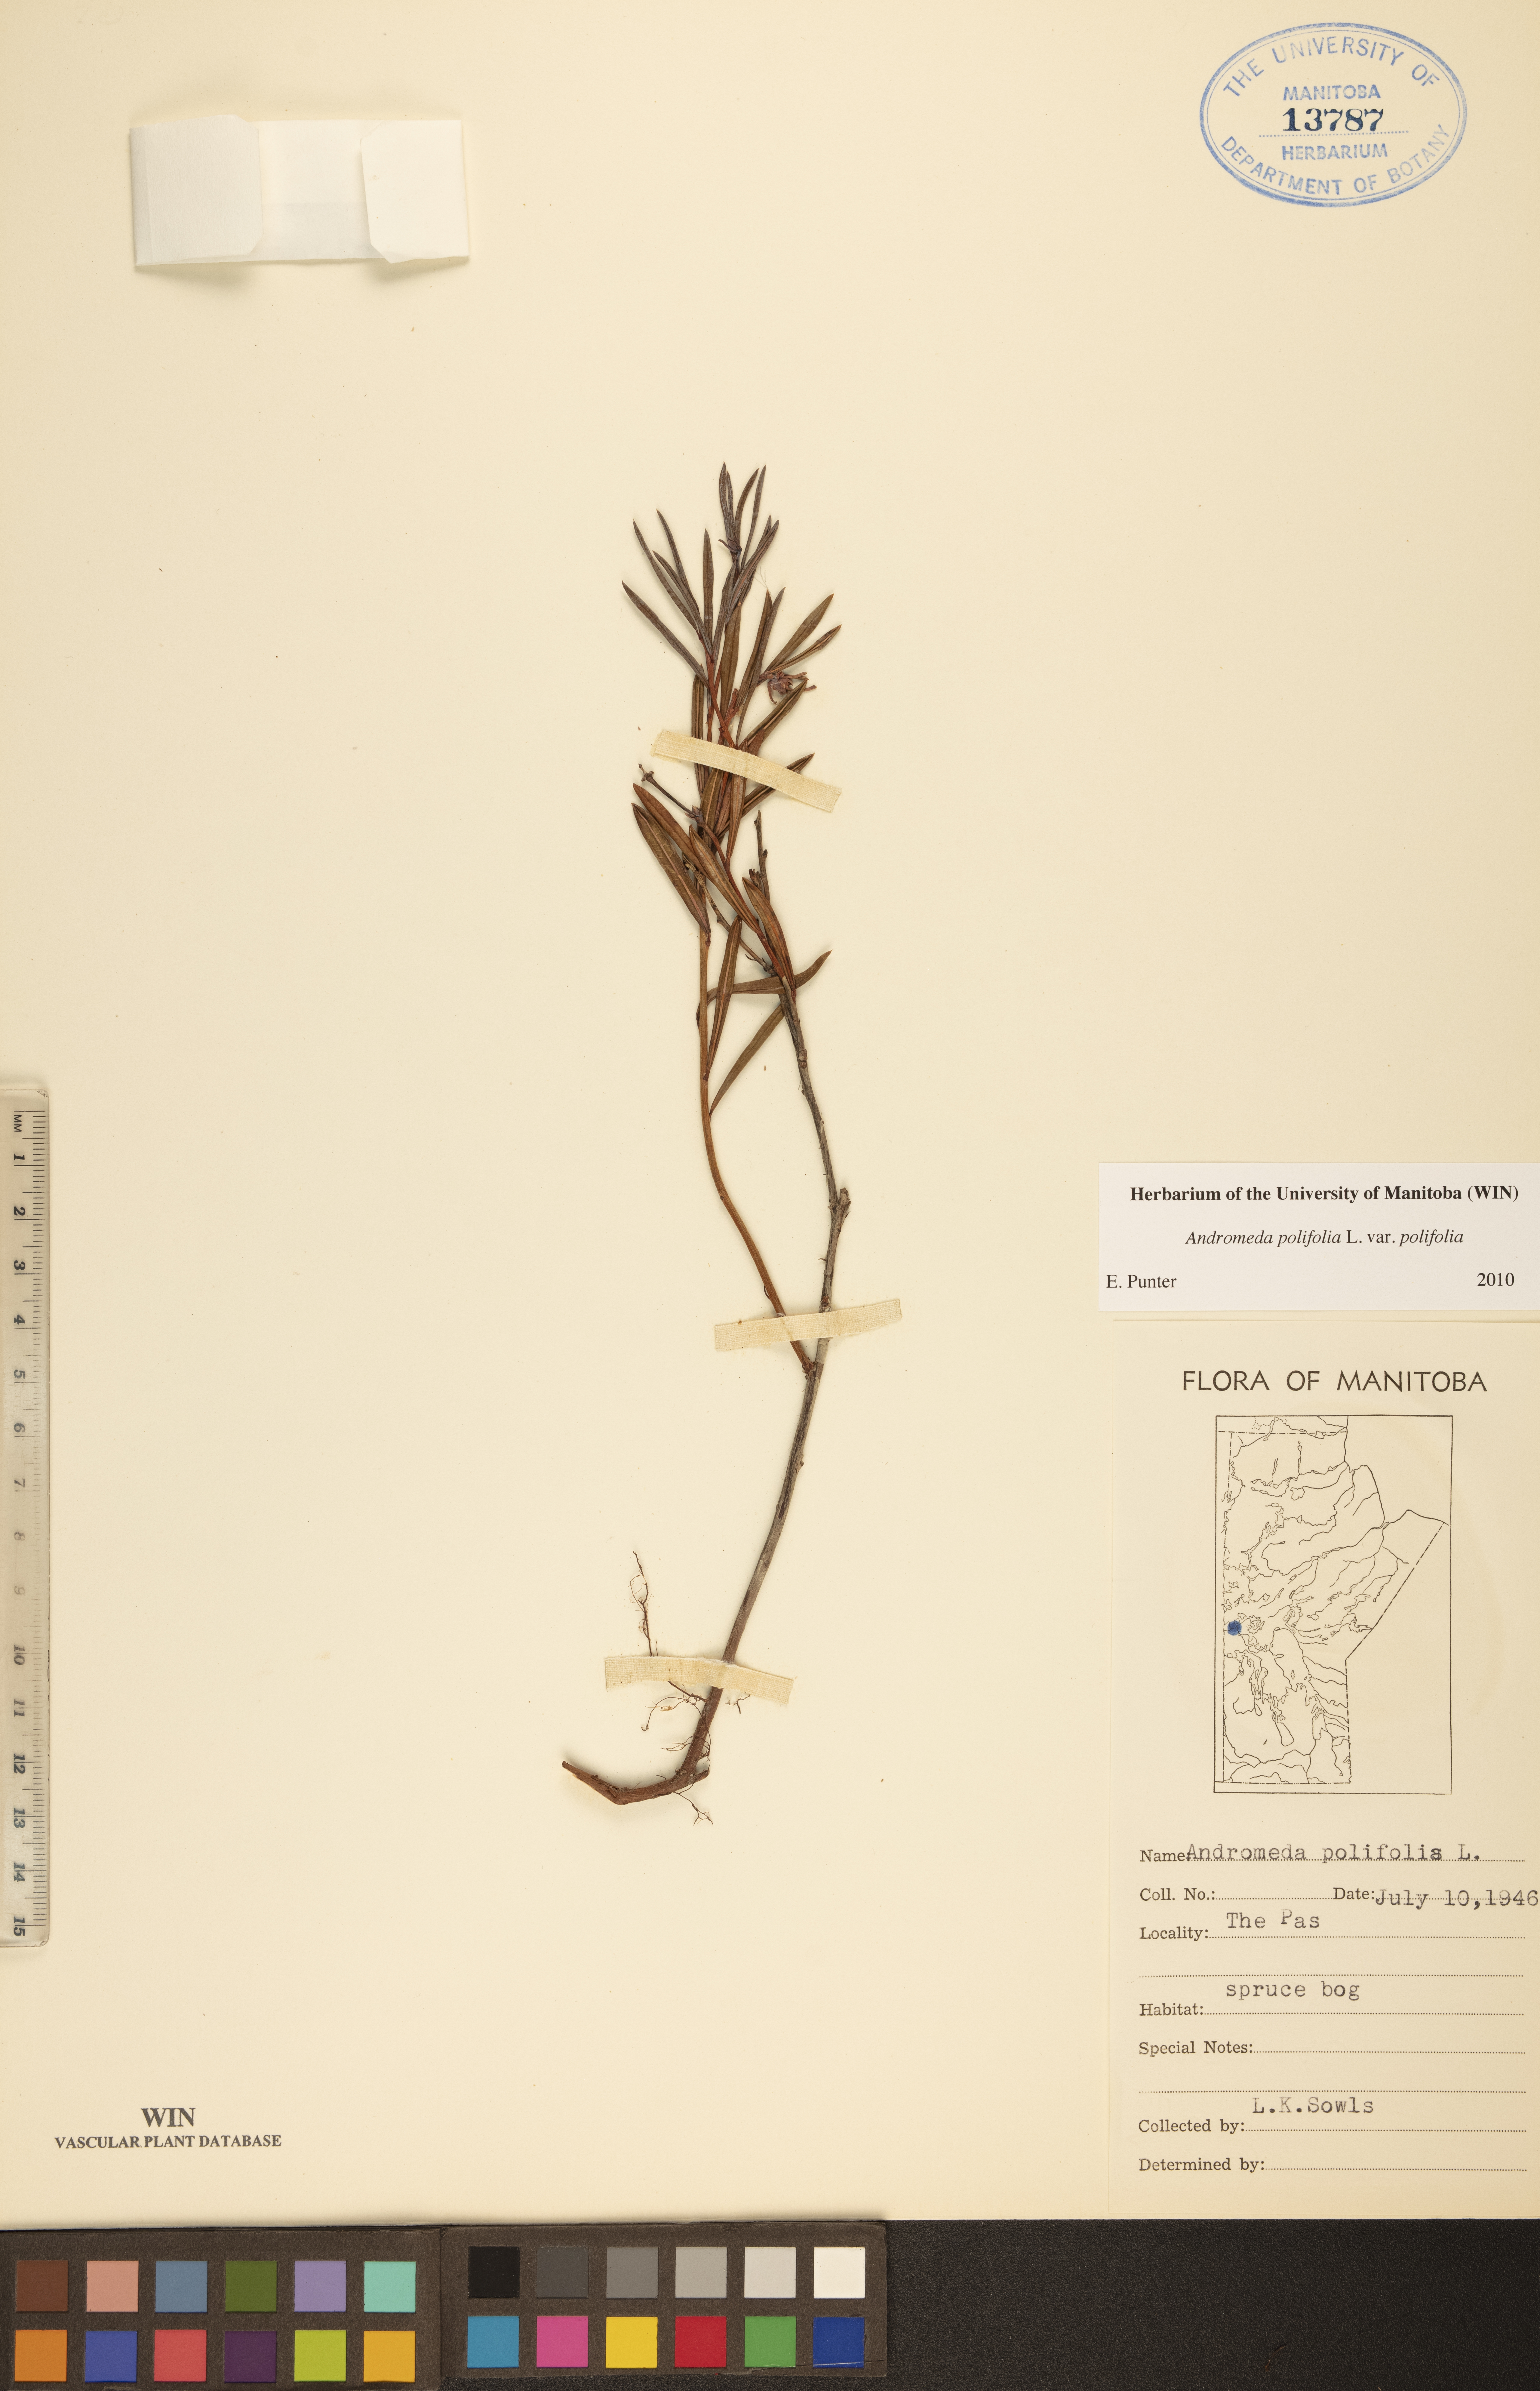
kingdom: Plantae
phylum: Tracheophyta
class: Magnoliopsida
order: Ericales
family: Ericaceae
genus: Andromeda
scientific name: Andromeda polifolia
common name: Bog-rosemary
